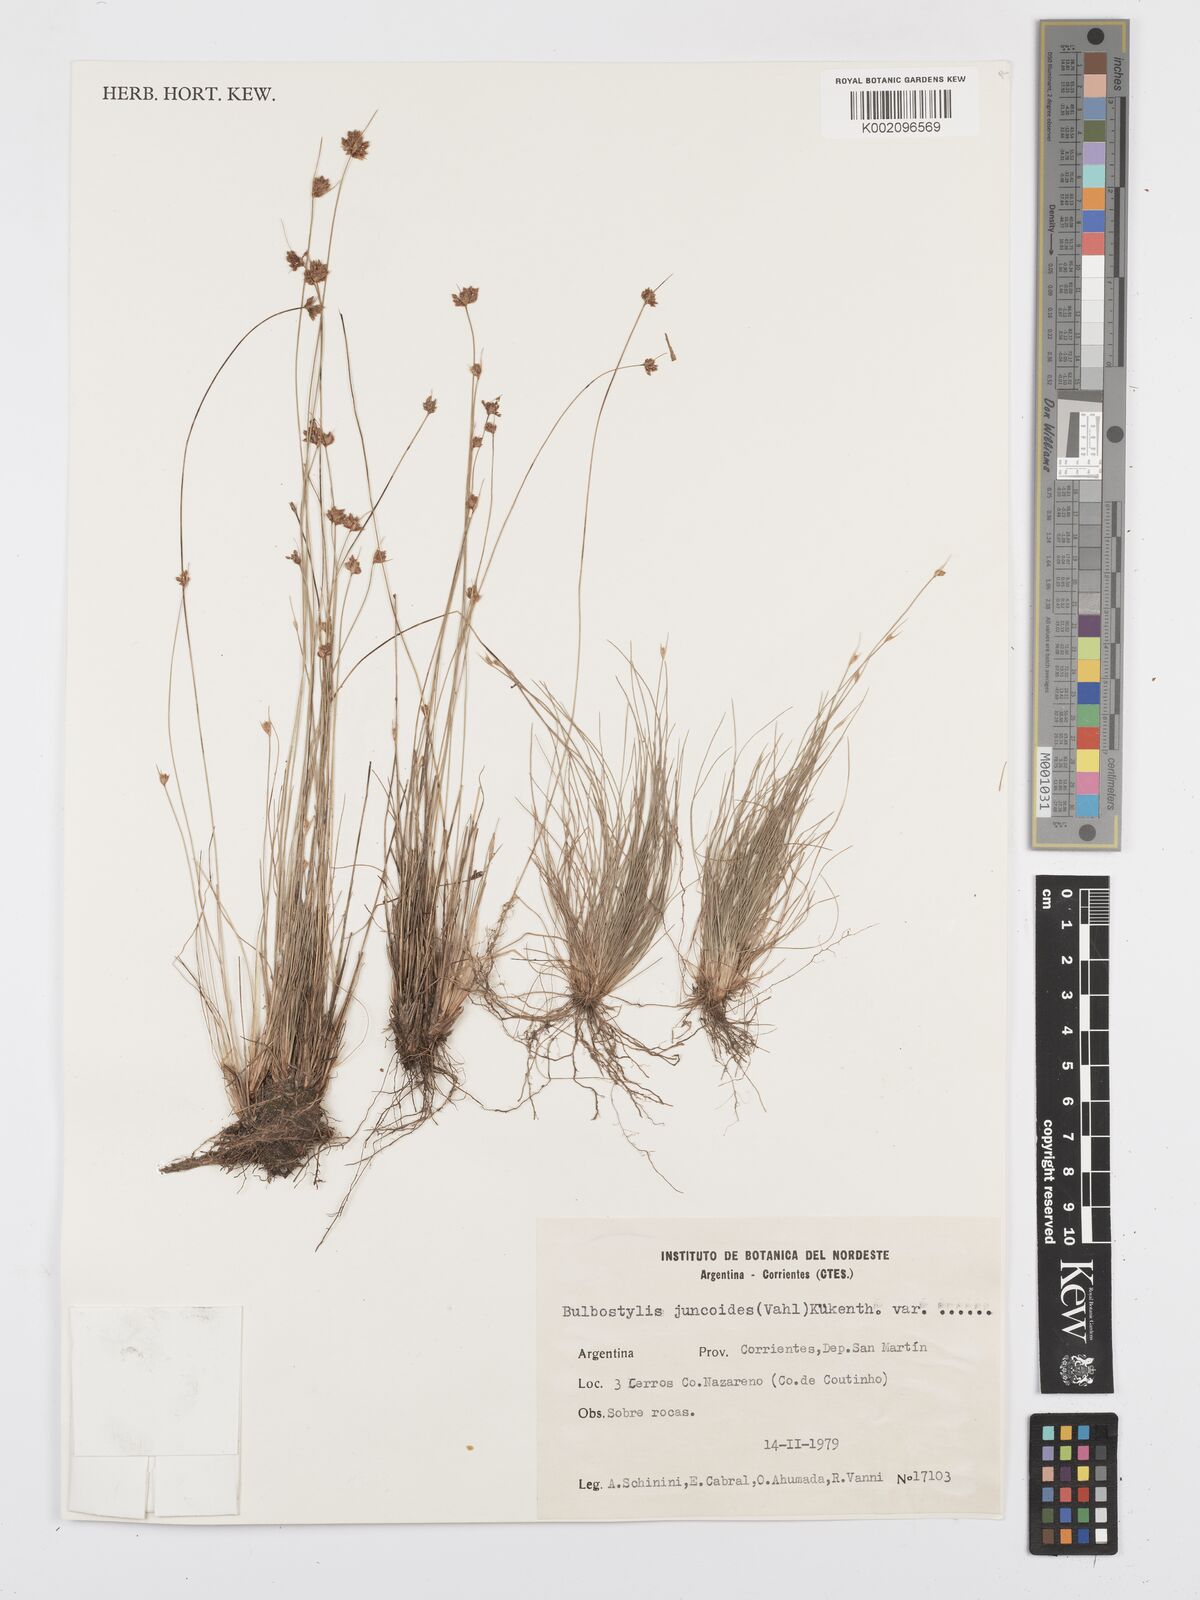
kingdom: Plantae
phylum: Tracheophyta
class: Liliopsida
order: Poales
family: Cyperaceae
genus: Bulbostylis
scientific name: Bulbostylis juncoides
